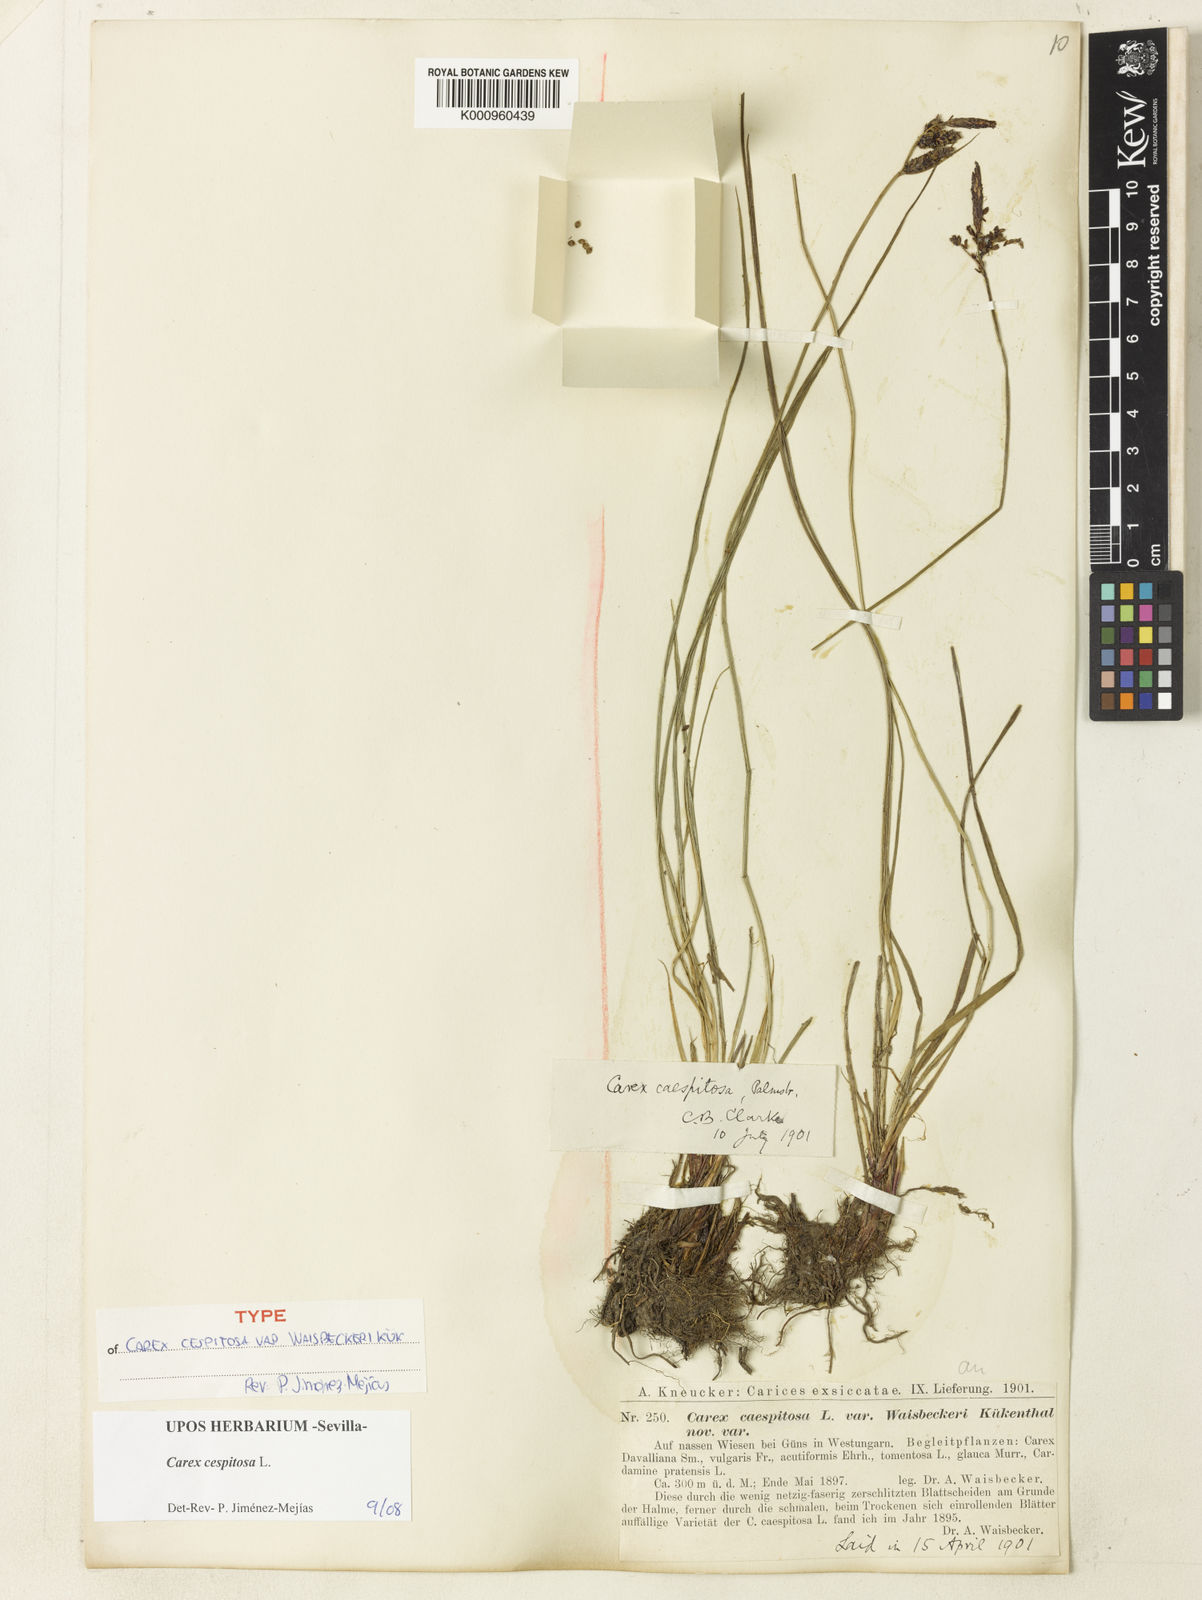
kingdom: Plantae
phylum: Tracheophyta
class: Liliopsida
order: Poales
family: Cyperaceae
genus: Carex
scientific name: Carex cespitosa
